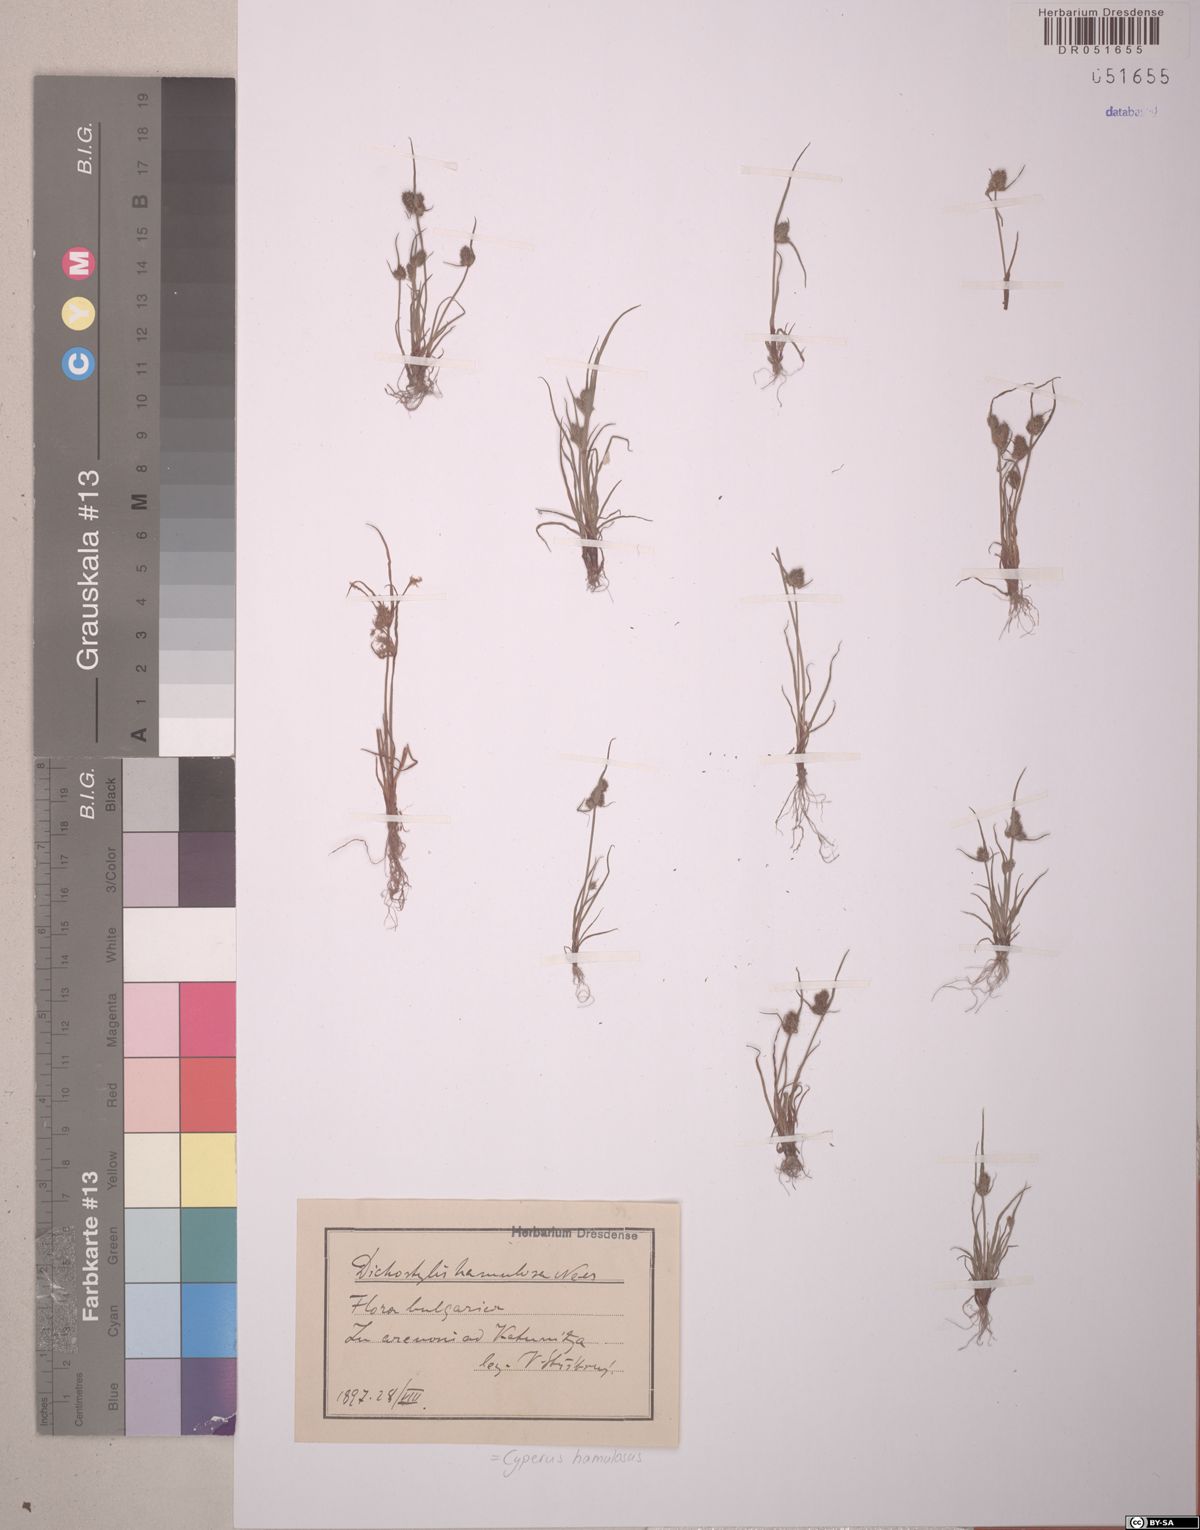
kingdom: Plantae
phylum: Tracheophyta
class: Liliopsida
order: Poales
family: Cyperaceae
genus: Cyperus
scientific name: Cyperus hamulosus
